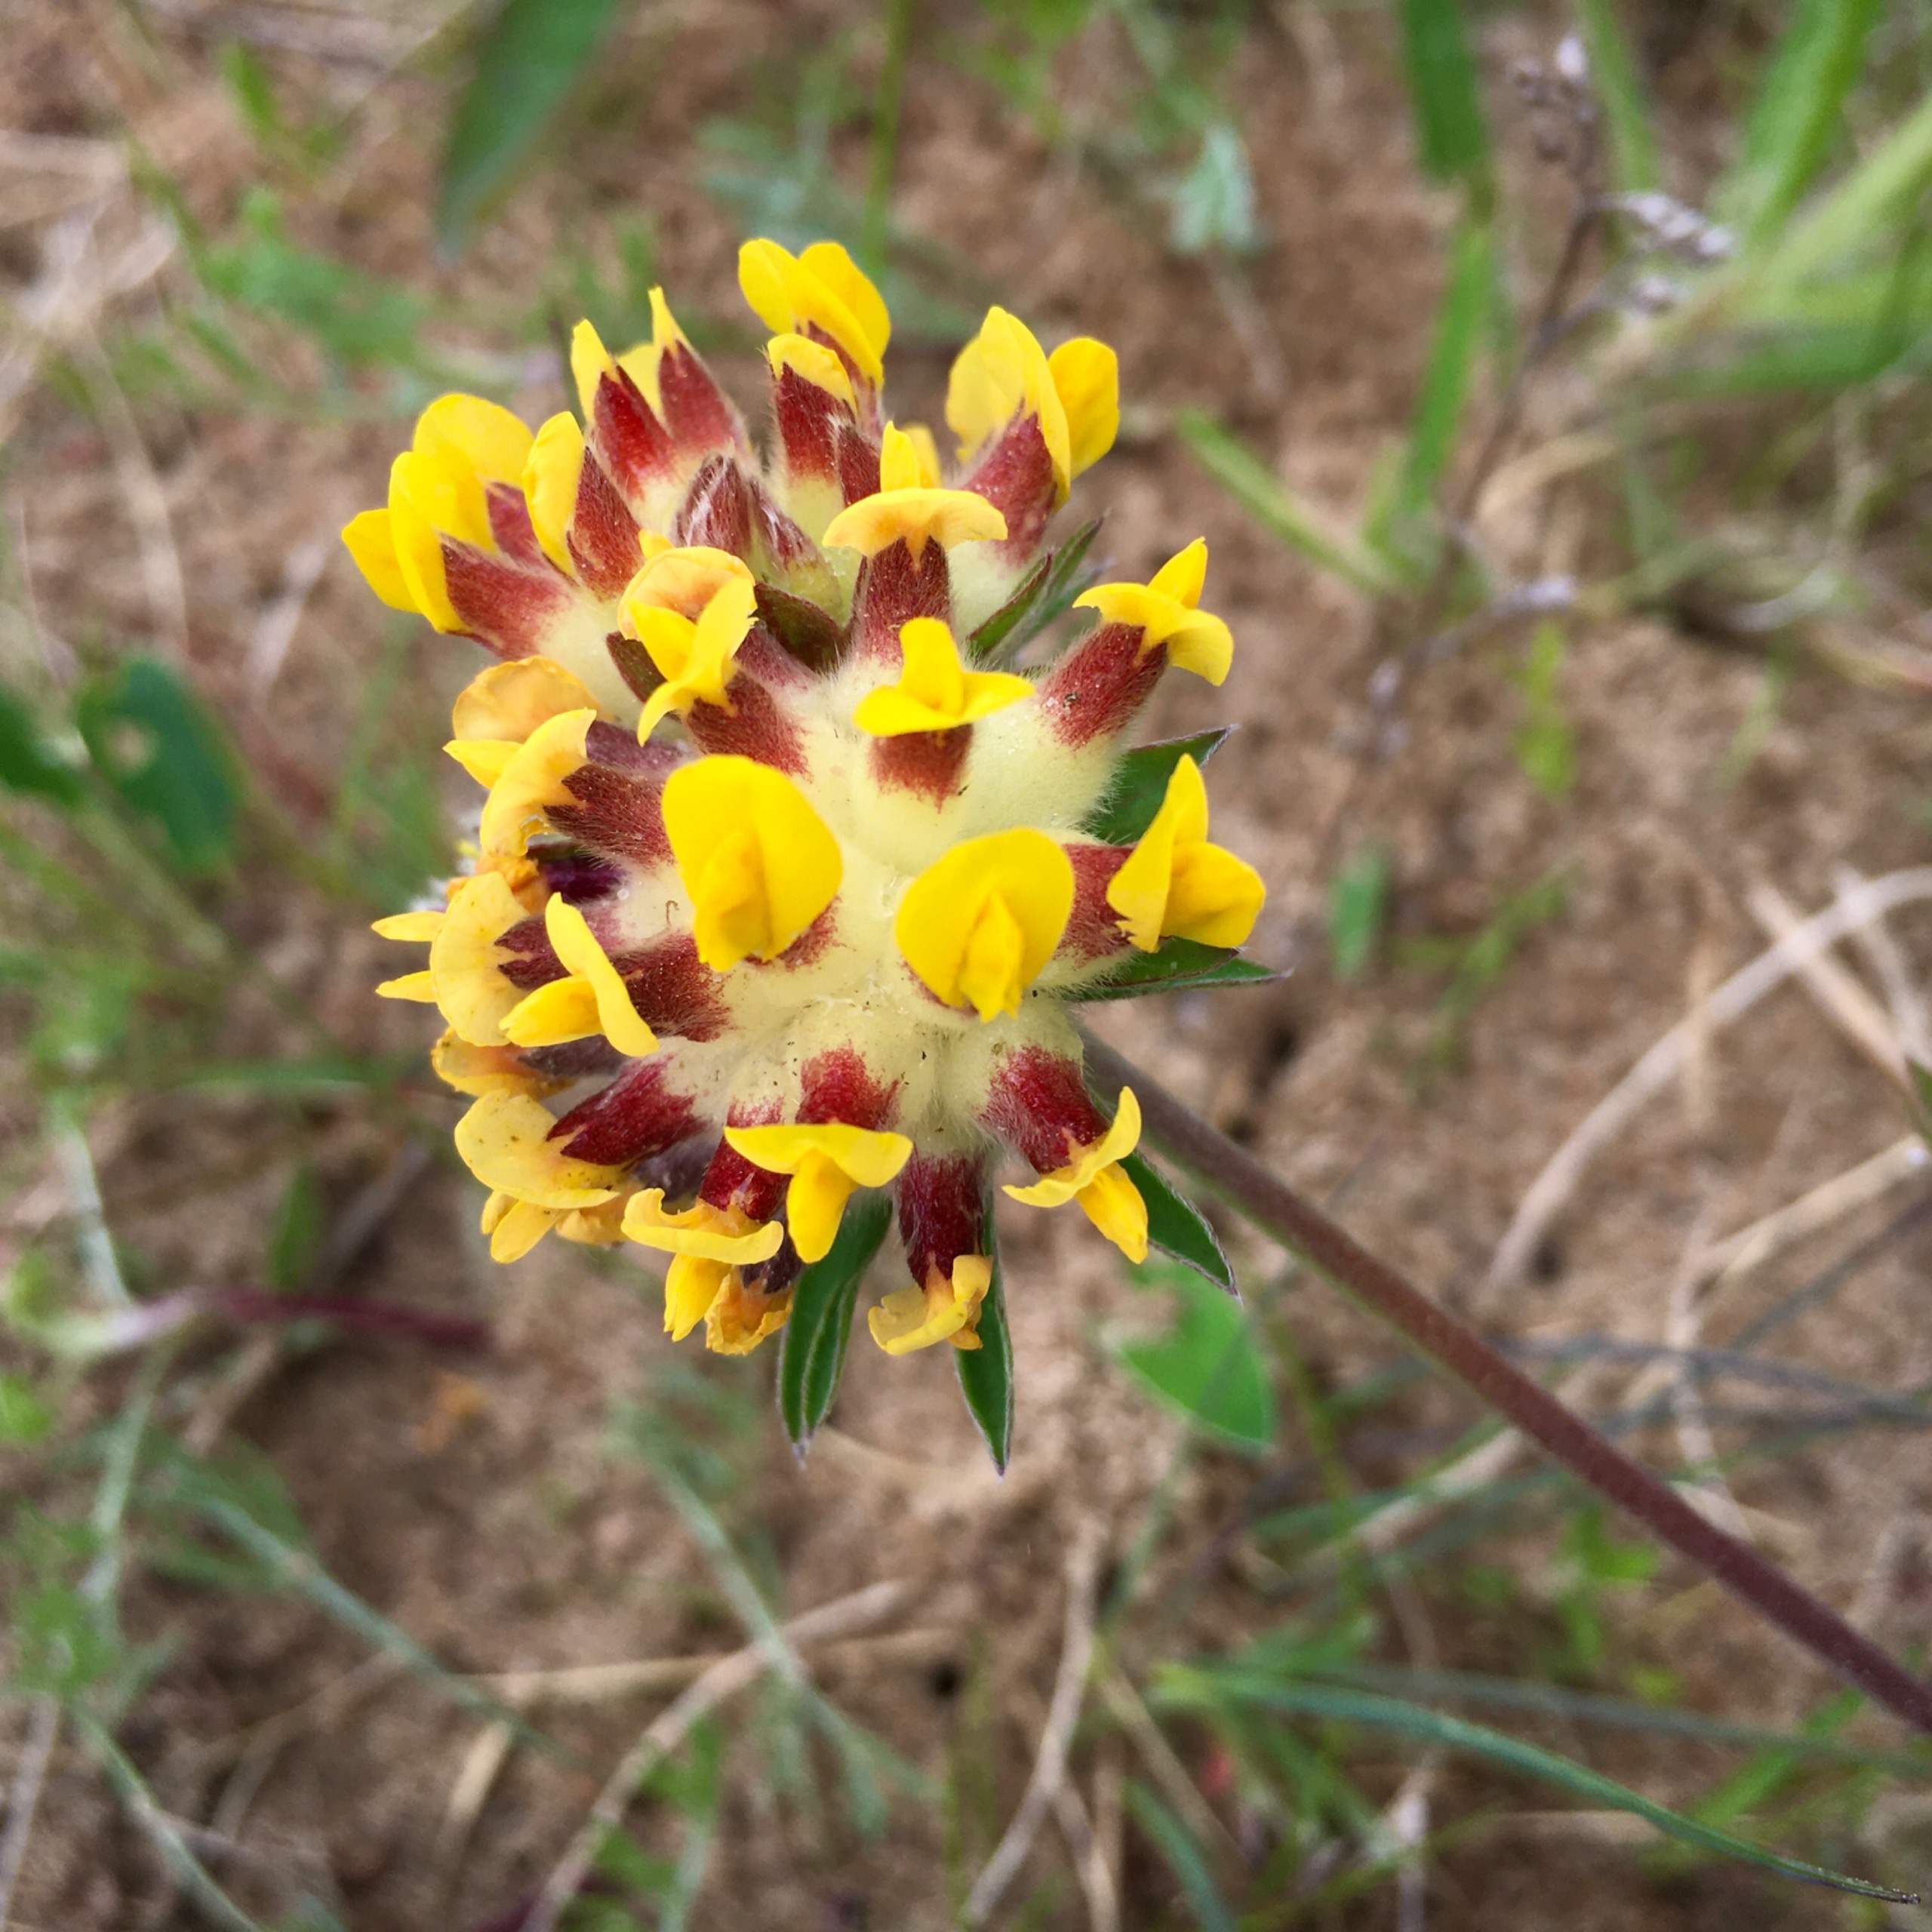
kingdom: Plantae
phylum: Tracheophyta
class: Magnoliopsida
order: Fabales
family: Fabaceae
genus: Anthyllis
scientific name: Anthyllis vulneraria
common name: Rundbælg
